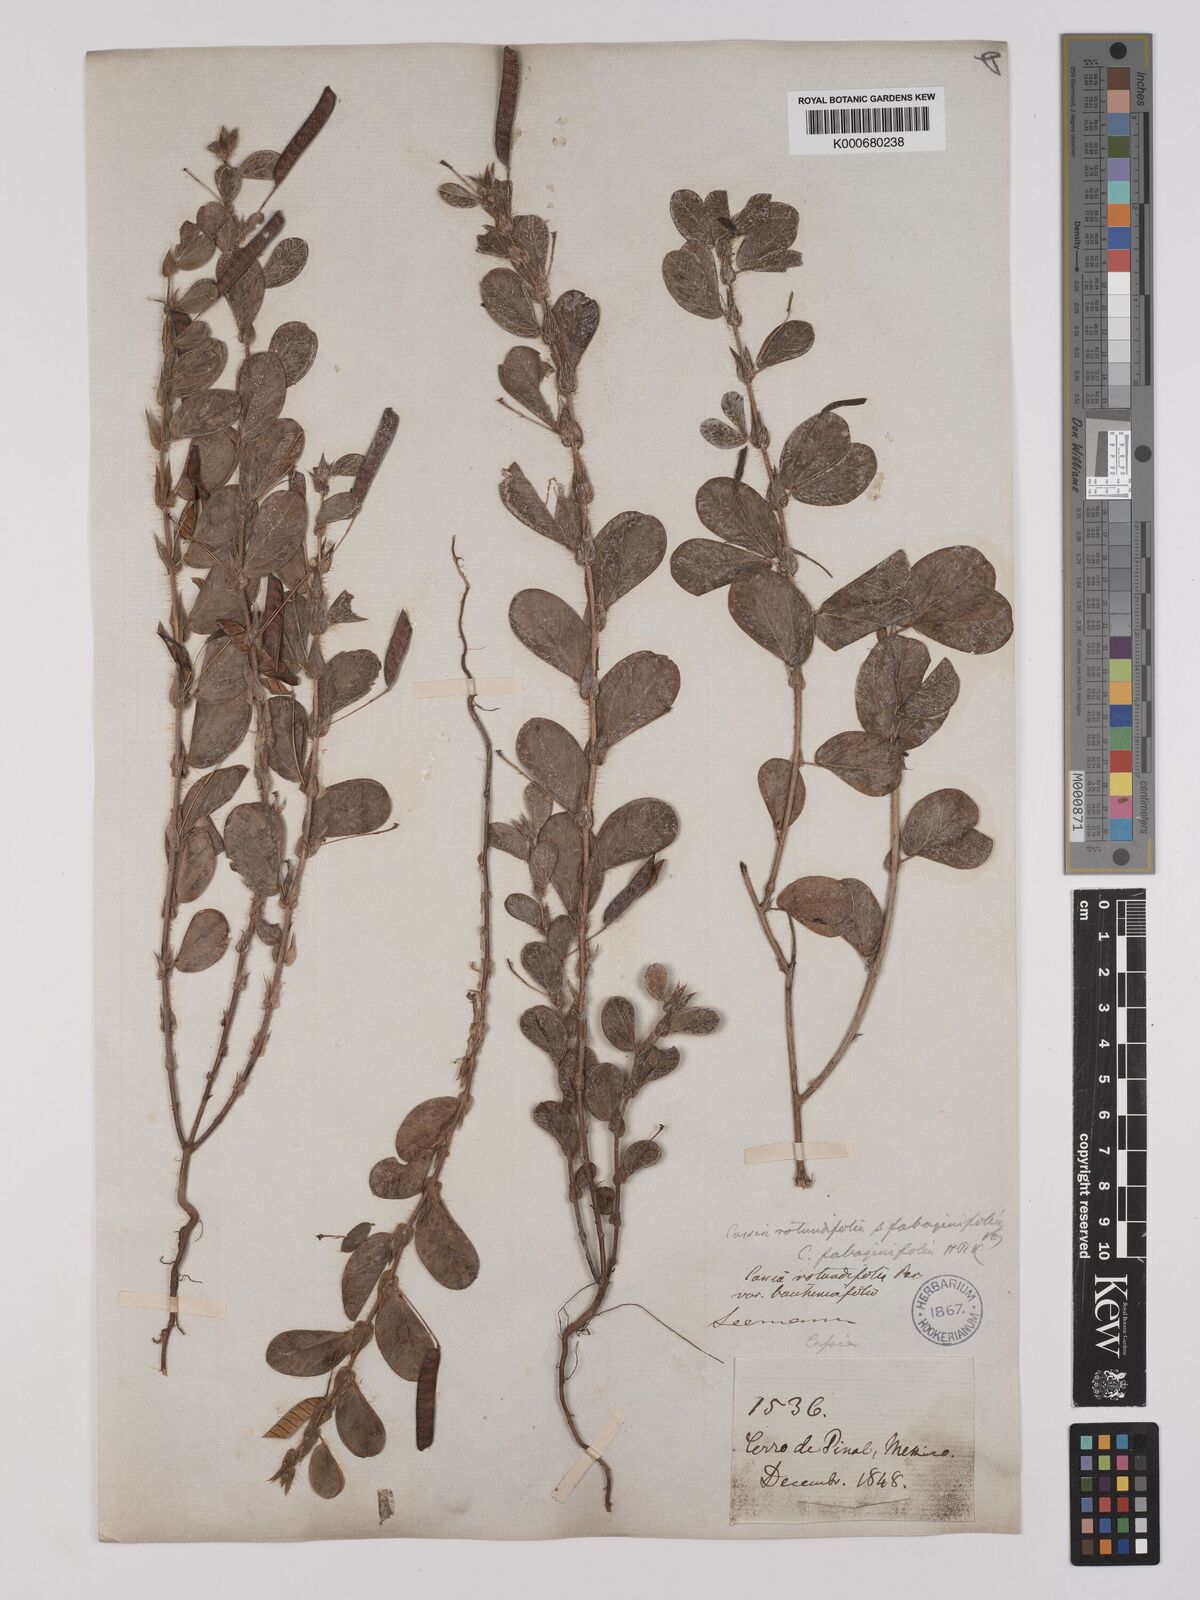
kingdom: Plantae
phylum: Tracheophyta
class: Magnoliopsida
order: Fabales
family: Fabaceae
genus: Chamaecrista
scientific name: Chamaecrista rotundifolia
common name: Round-leaf cassia
